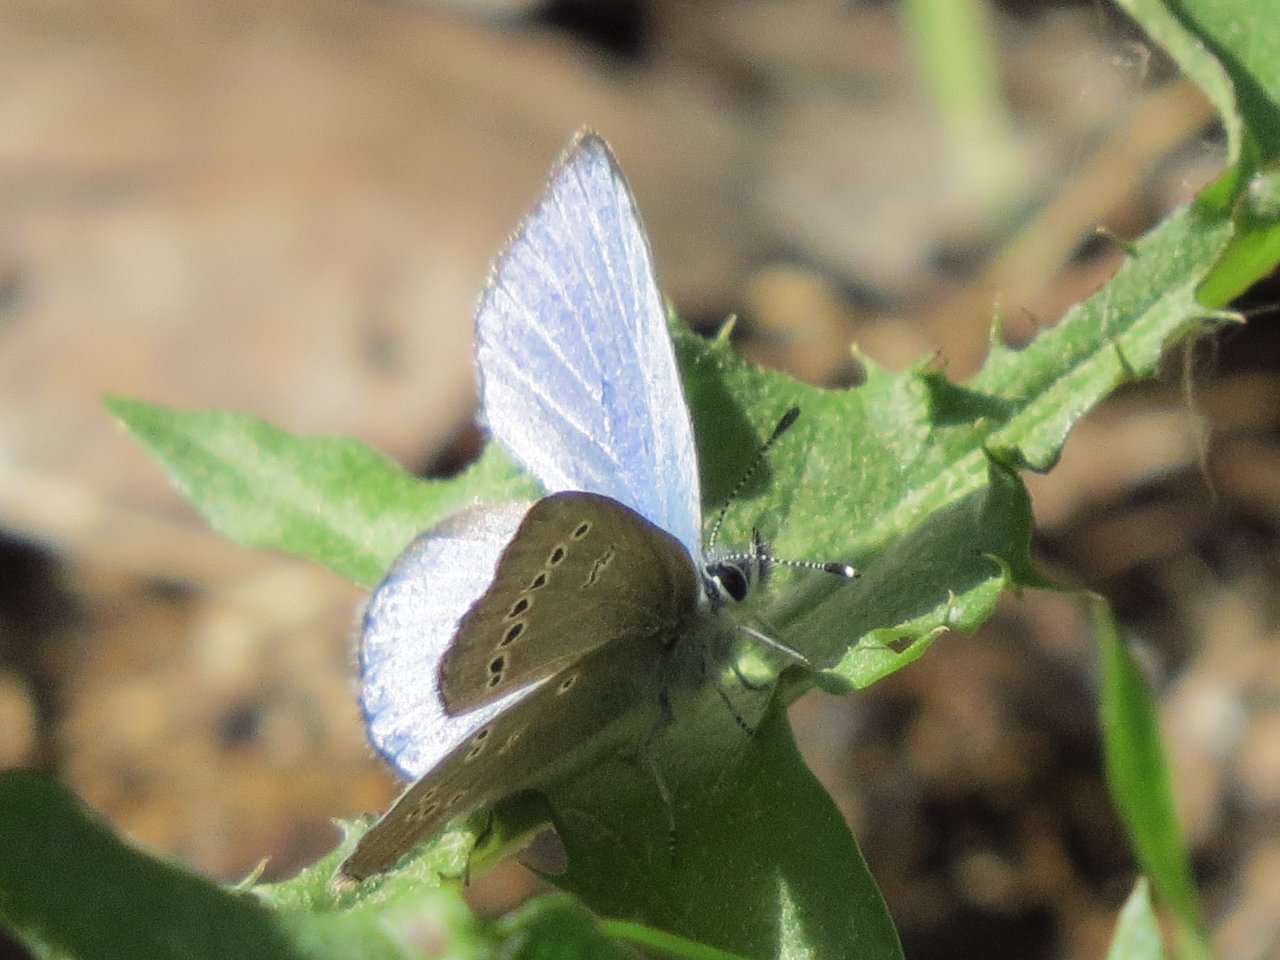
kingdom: Animalia
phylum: Arthropoda
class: Insecta
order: Lepidoptera
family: Lycaenidae
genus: Glaucopsyche
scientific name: Glaucopsyche lygdamus
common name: Silvery Blue
